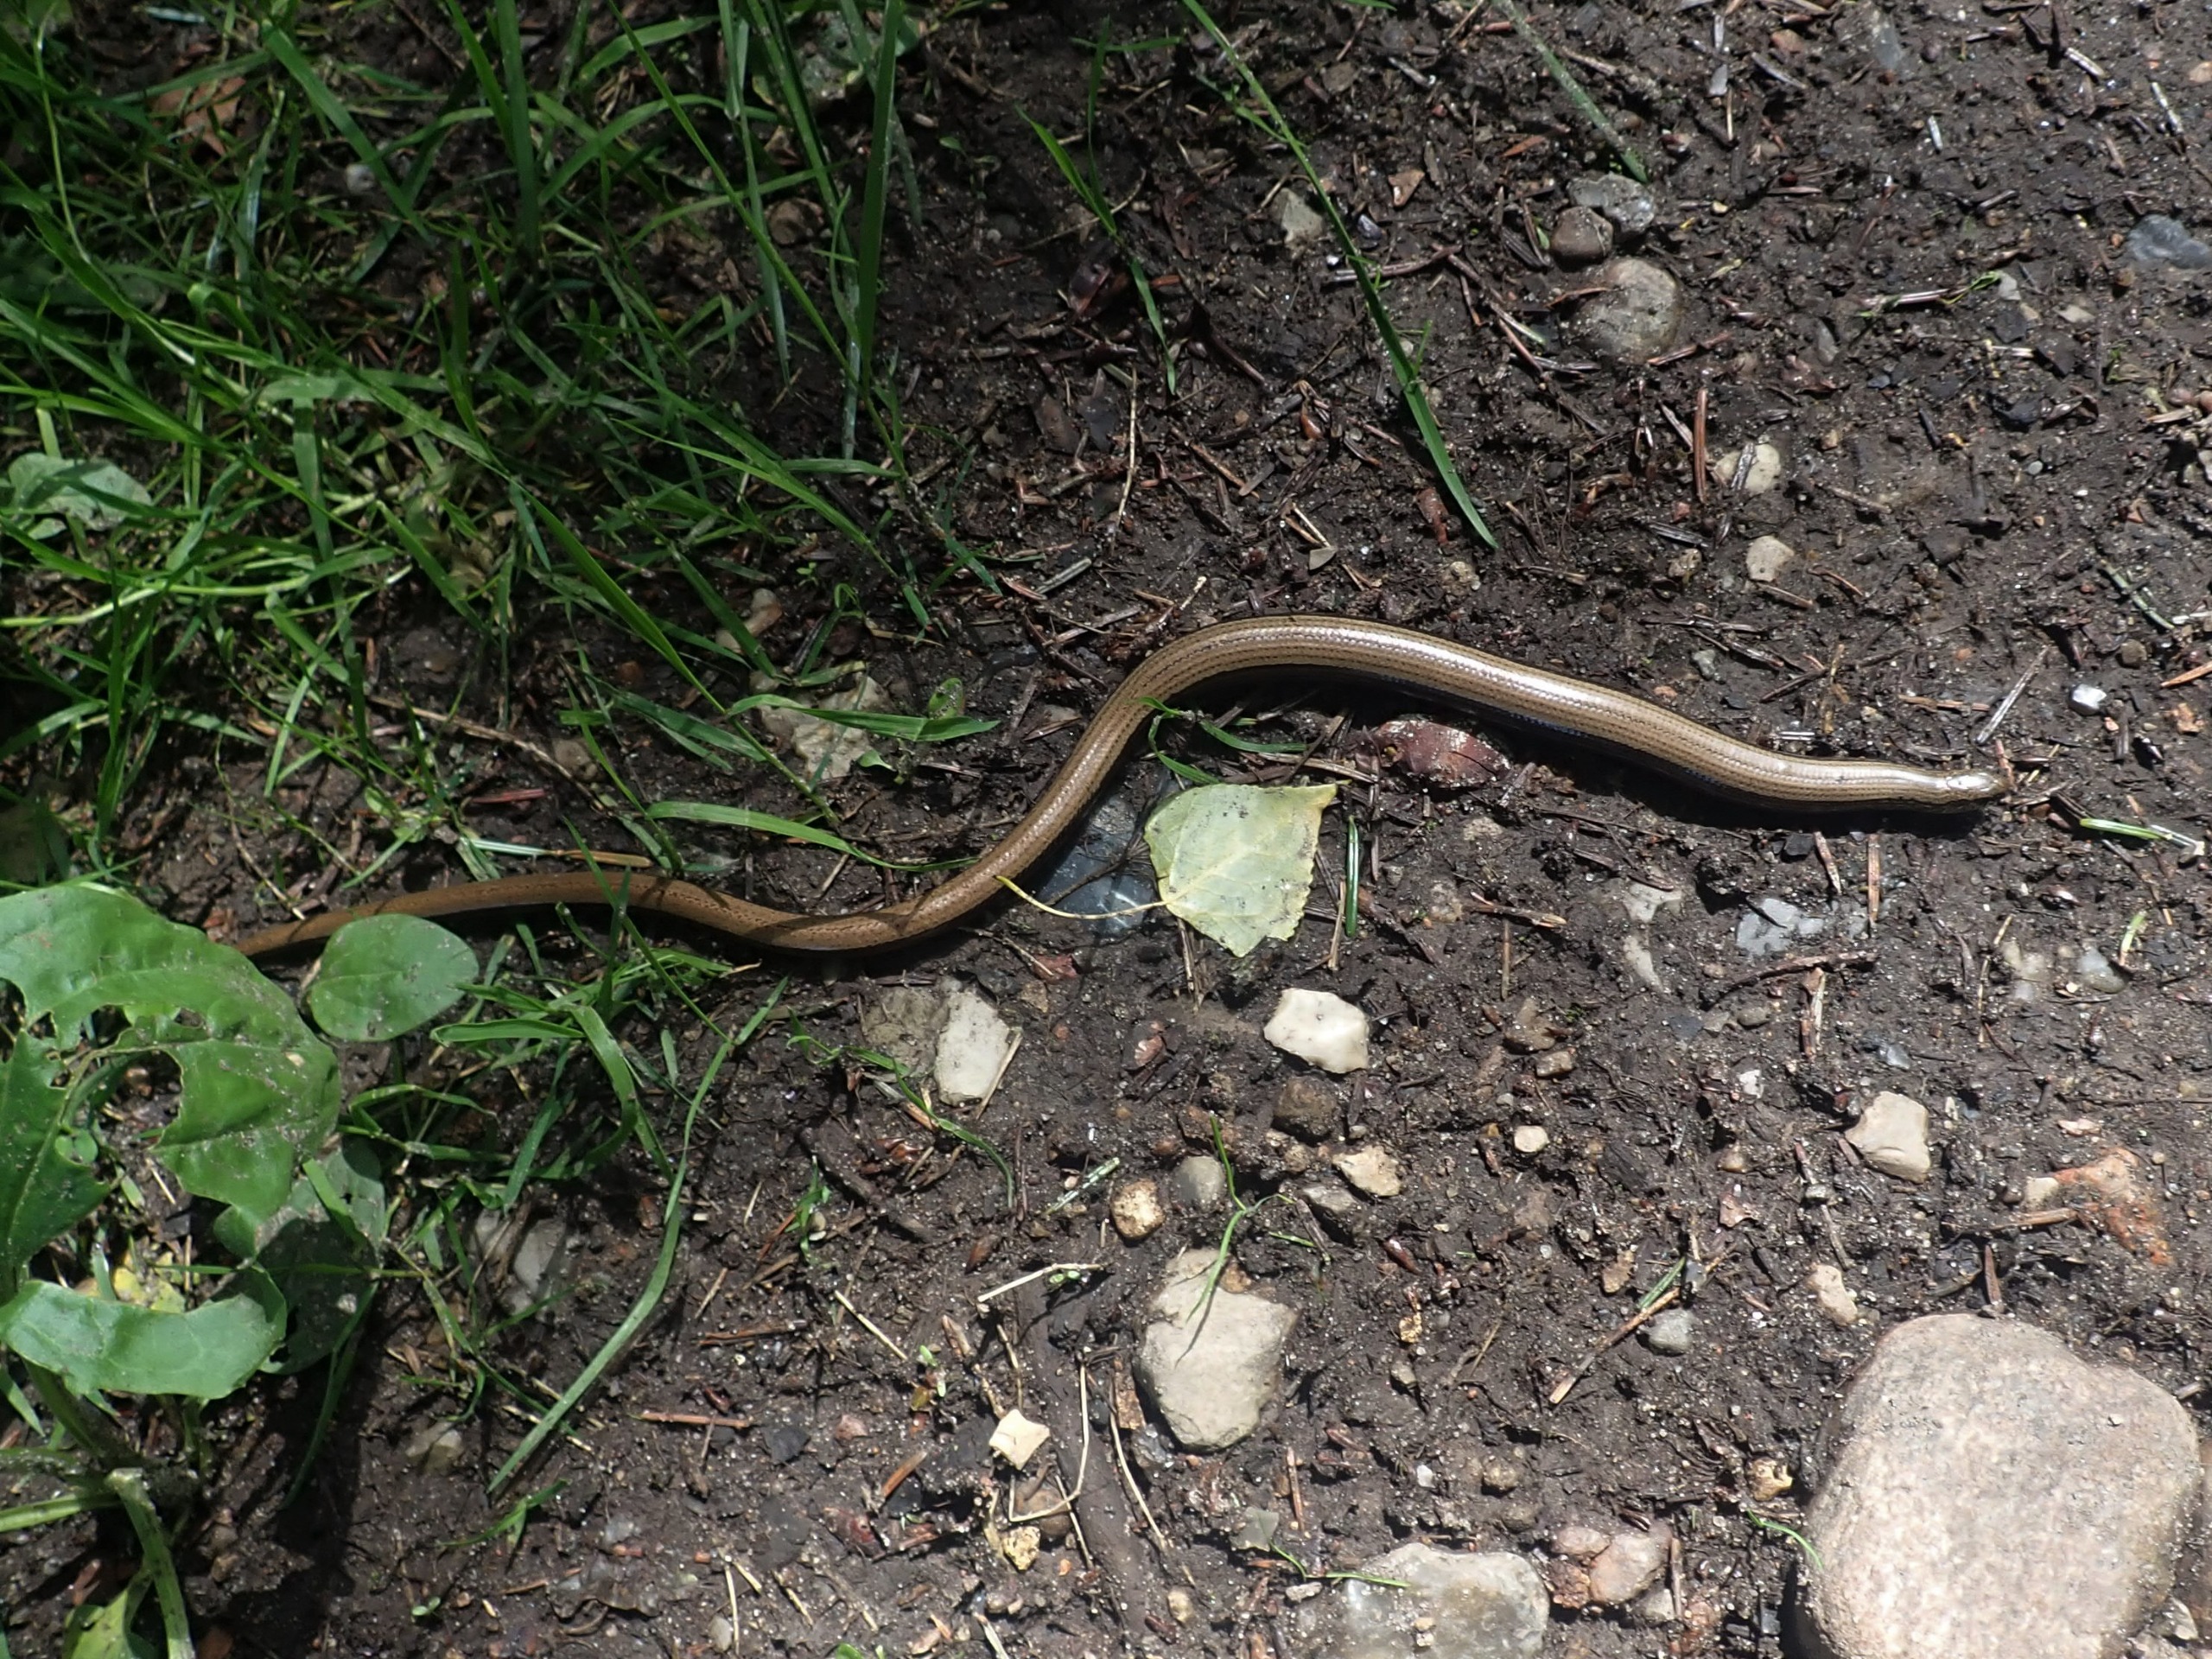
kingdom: Animalia
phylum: Chordata
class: Squamata
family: Anguidae
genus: Anguis
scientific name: Anguis fragilis
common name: Stålorm
